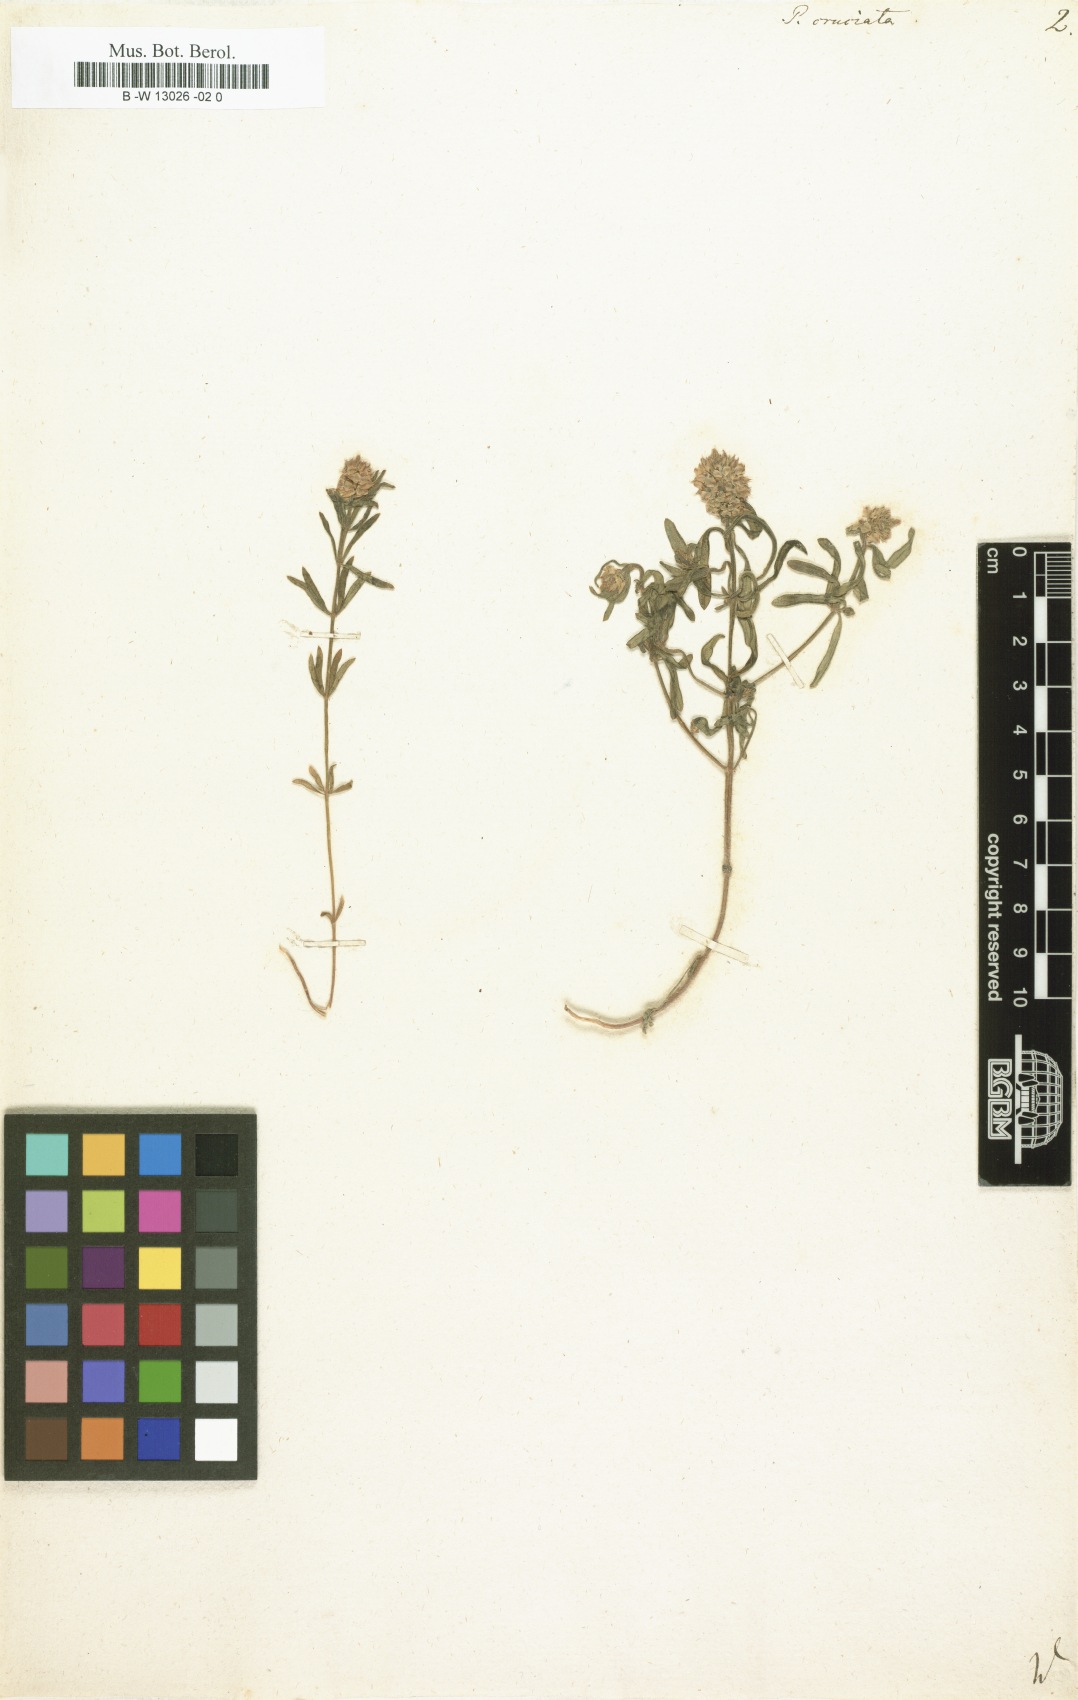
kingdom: Plantae
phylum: Tracheophyta
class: Magnoliopsida
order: Fabales
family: Polygalaceae
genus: Polygala
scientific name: Polygala cruciata
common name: Drumheads
